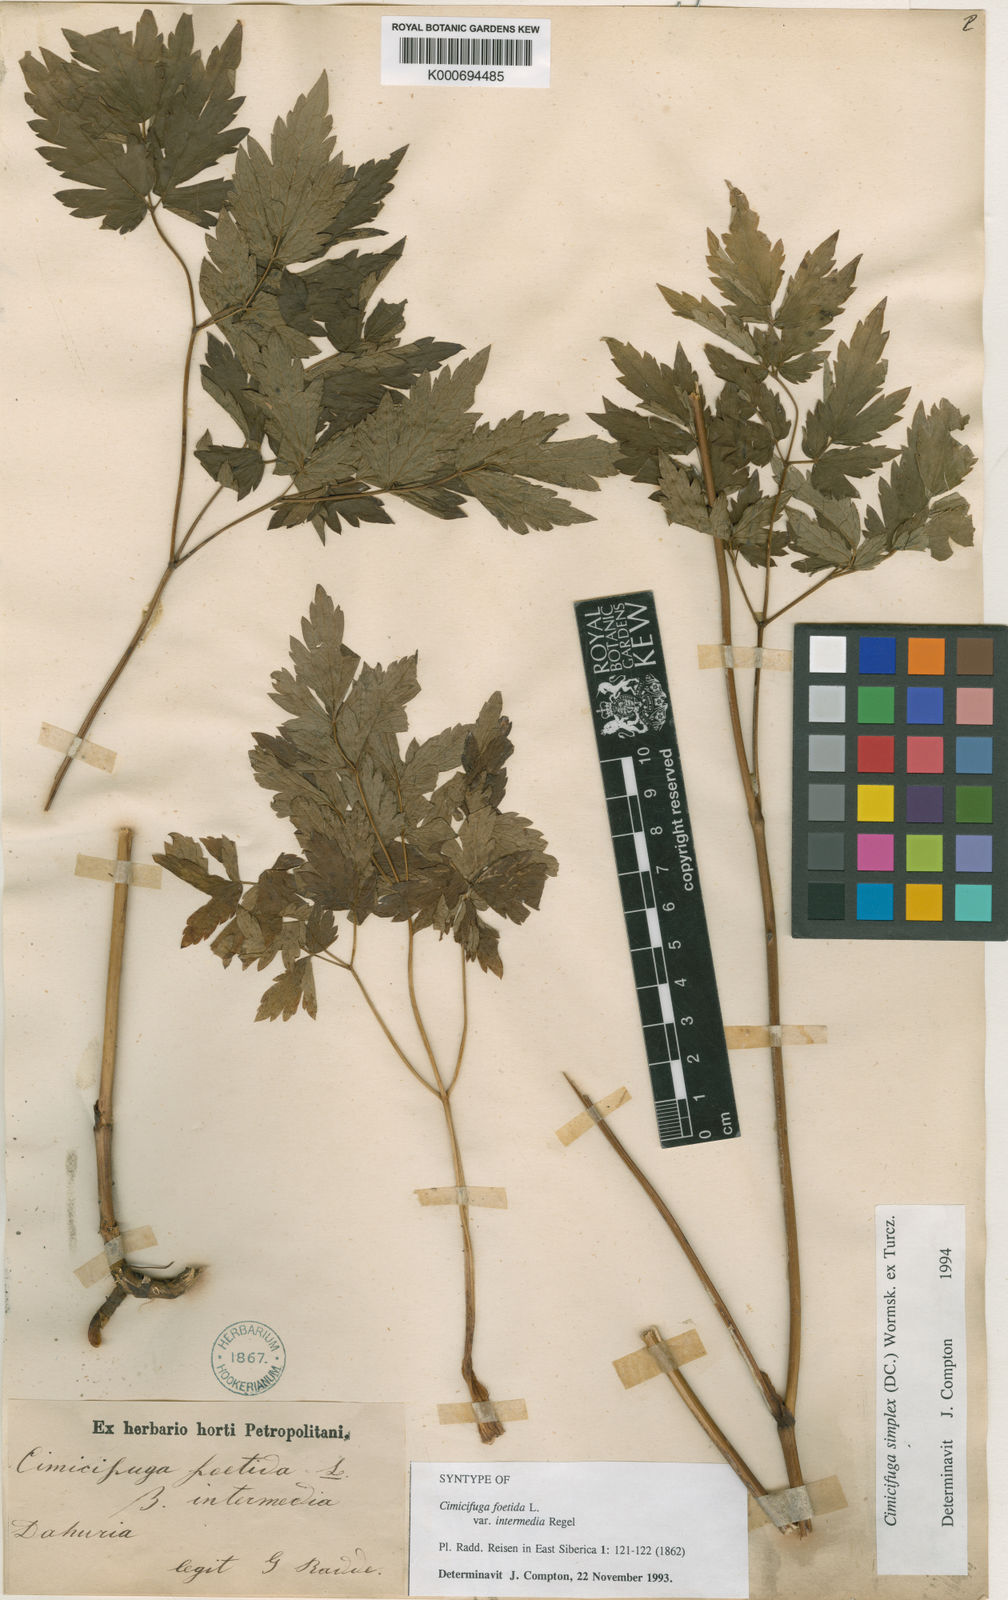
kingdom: Plantae
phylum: Tracheophyta
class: Magnoliopsida
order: Ranunculales
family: Ranunculaceae
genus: Actaea
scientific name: Actaea simplex
